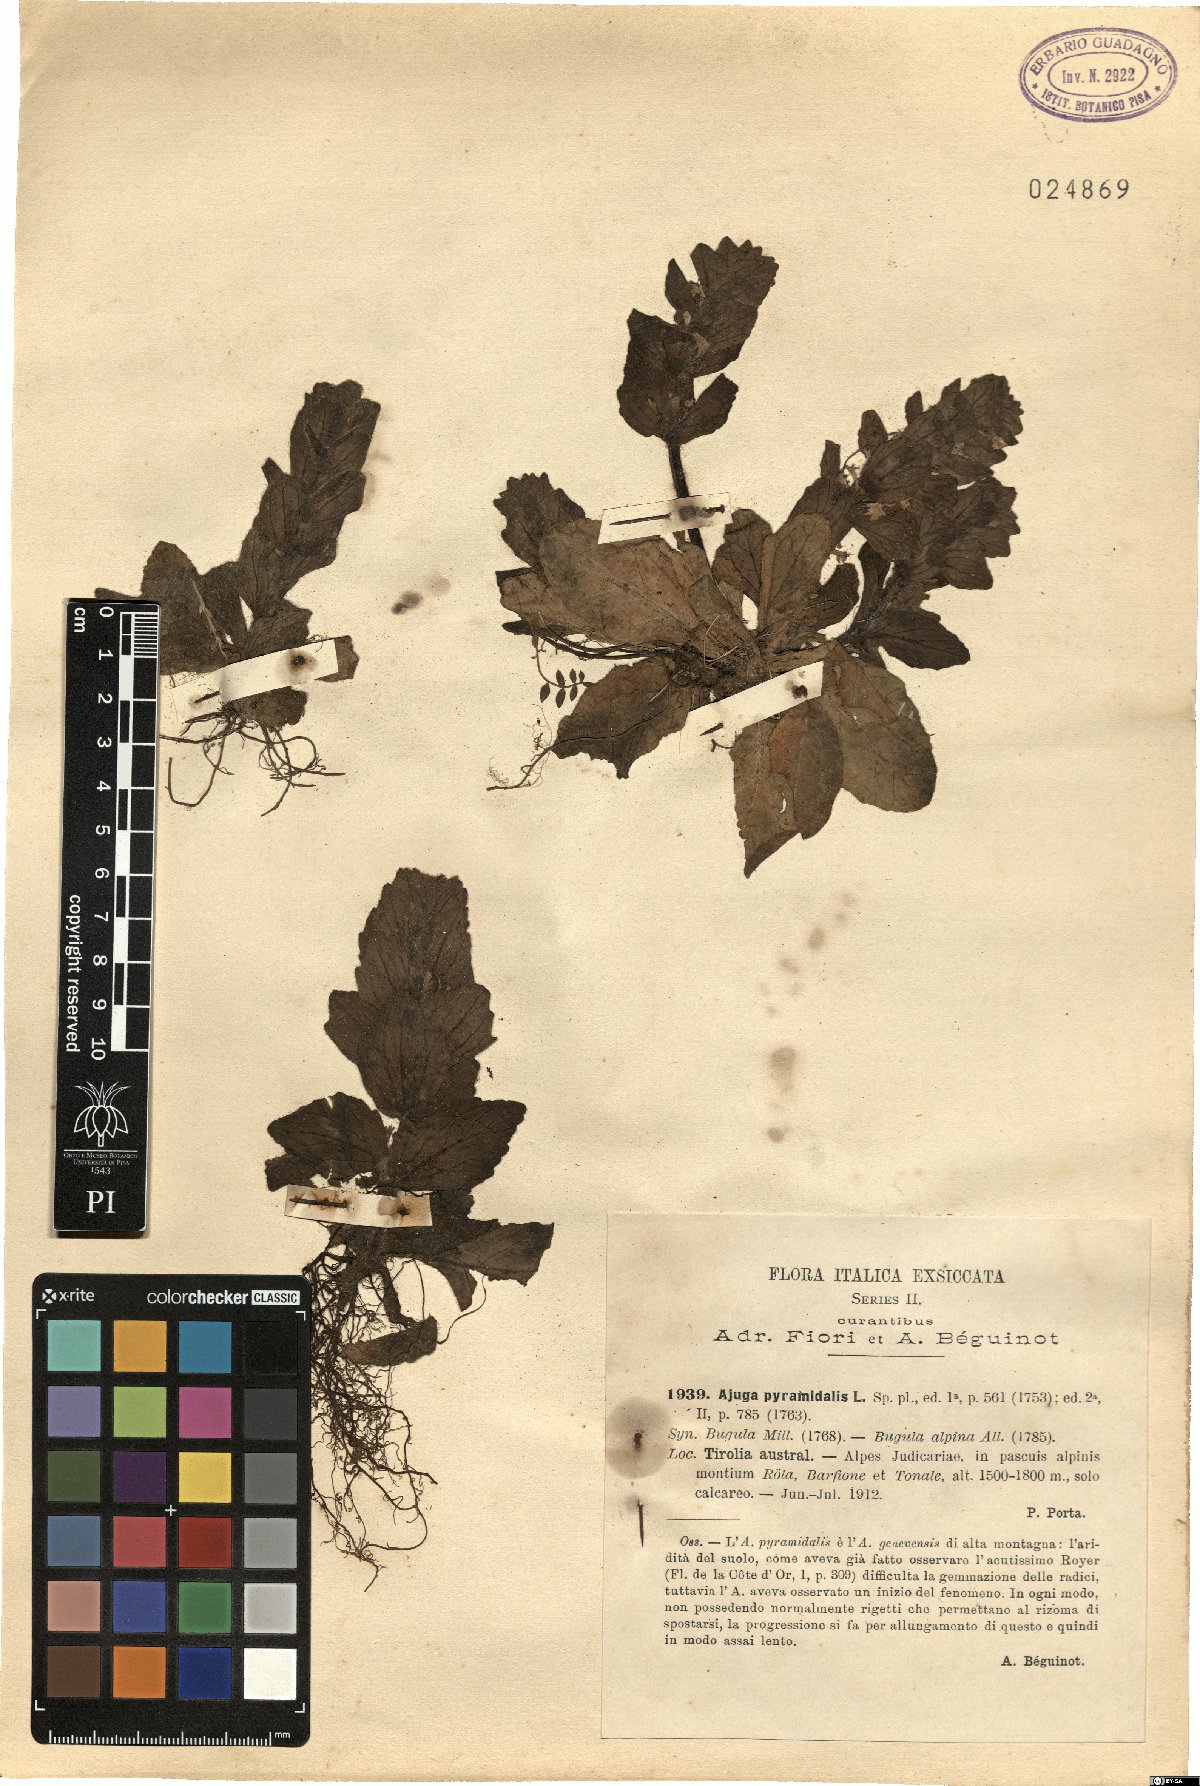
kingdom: Plantae
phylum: Tracheophyta
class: Magnoliopsida
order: Lamiales
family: Lamiaceae
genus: Ajuga
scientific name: Ajuga pyramidalis
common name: Pyramid bugle
